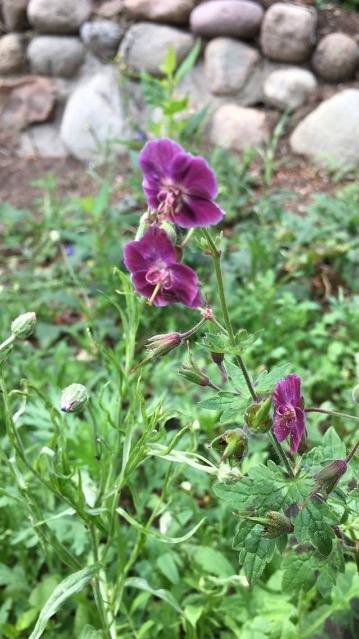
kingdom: Plantae
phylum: Tracheophyta
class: Magnoliopsida
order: Geraniales
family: Geraniaceae
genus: Geranium
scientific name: Geranium phaeum
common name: Bølgekronet storkenæb
